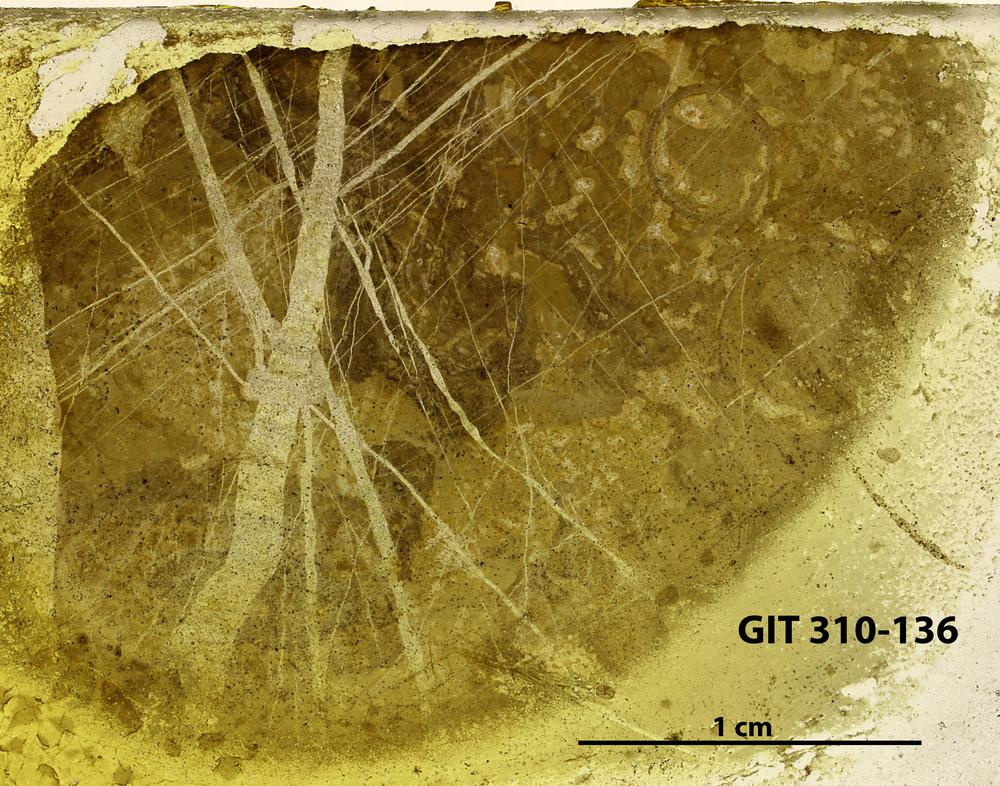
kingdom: Animalia
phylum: Porifera
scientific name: Porifera
